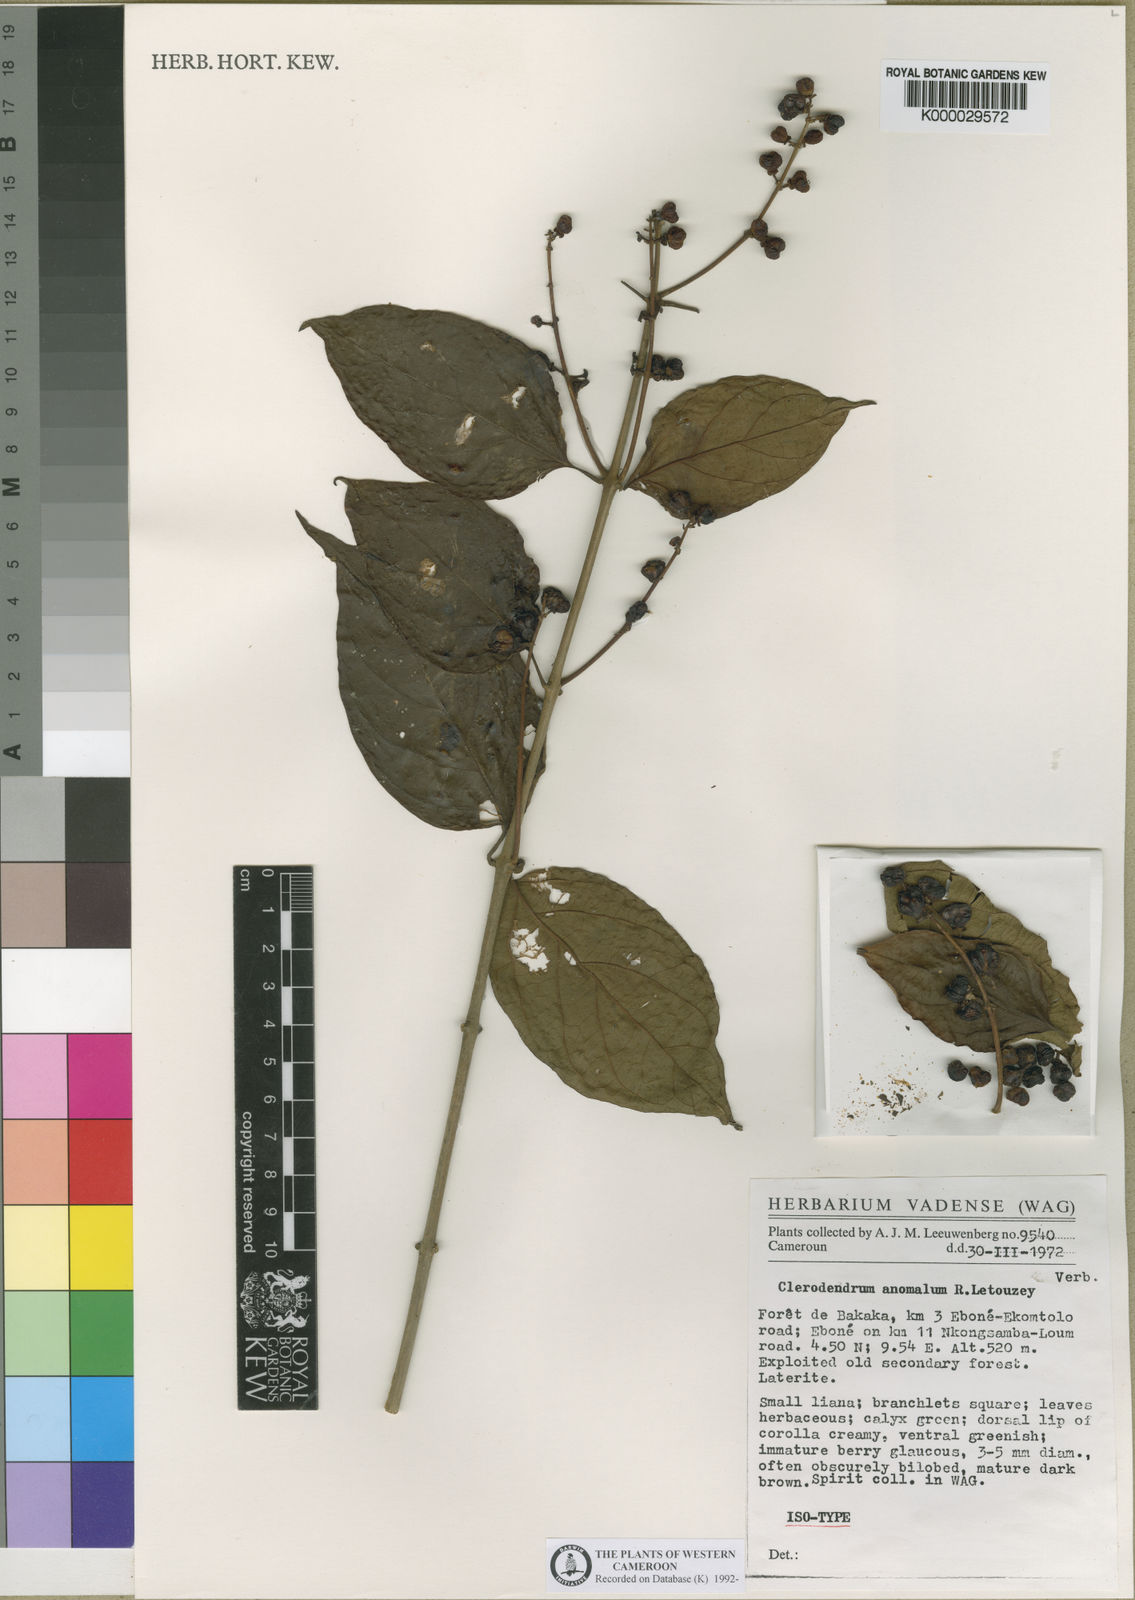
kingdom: Plantae
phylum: Tracheophyta
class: Magnoliopsida
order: Lamiales
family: Lamiaceae
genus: Clerodendrum
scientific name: Clerodendrum anomalum
